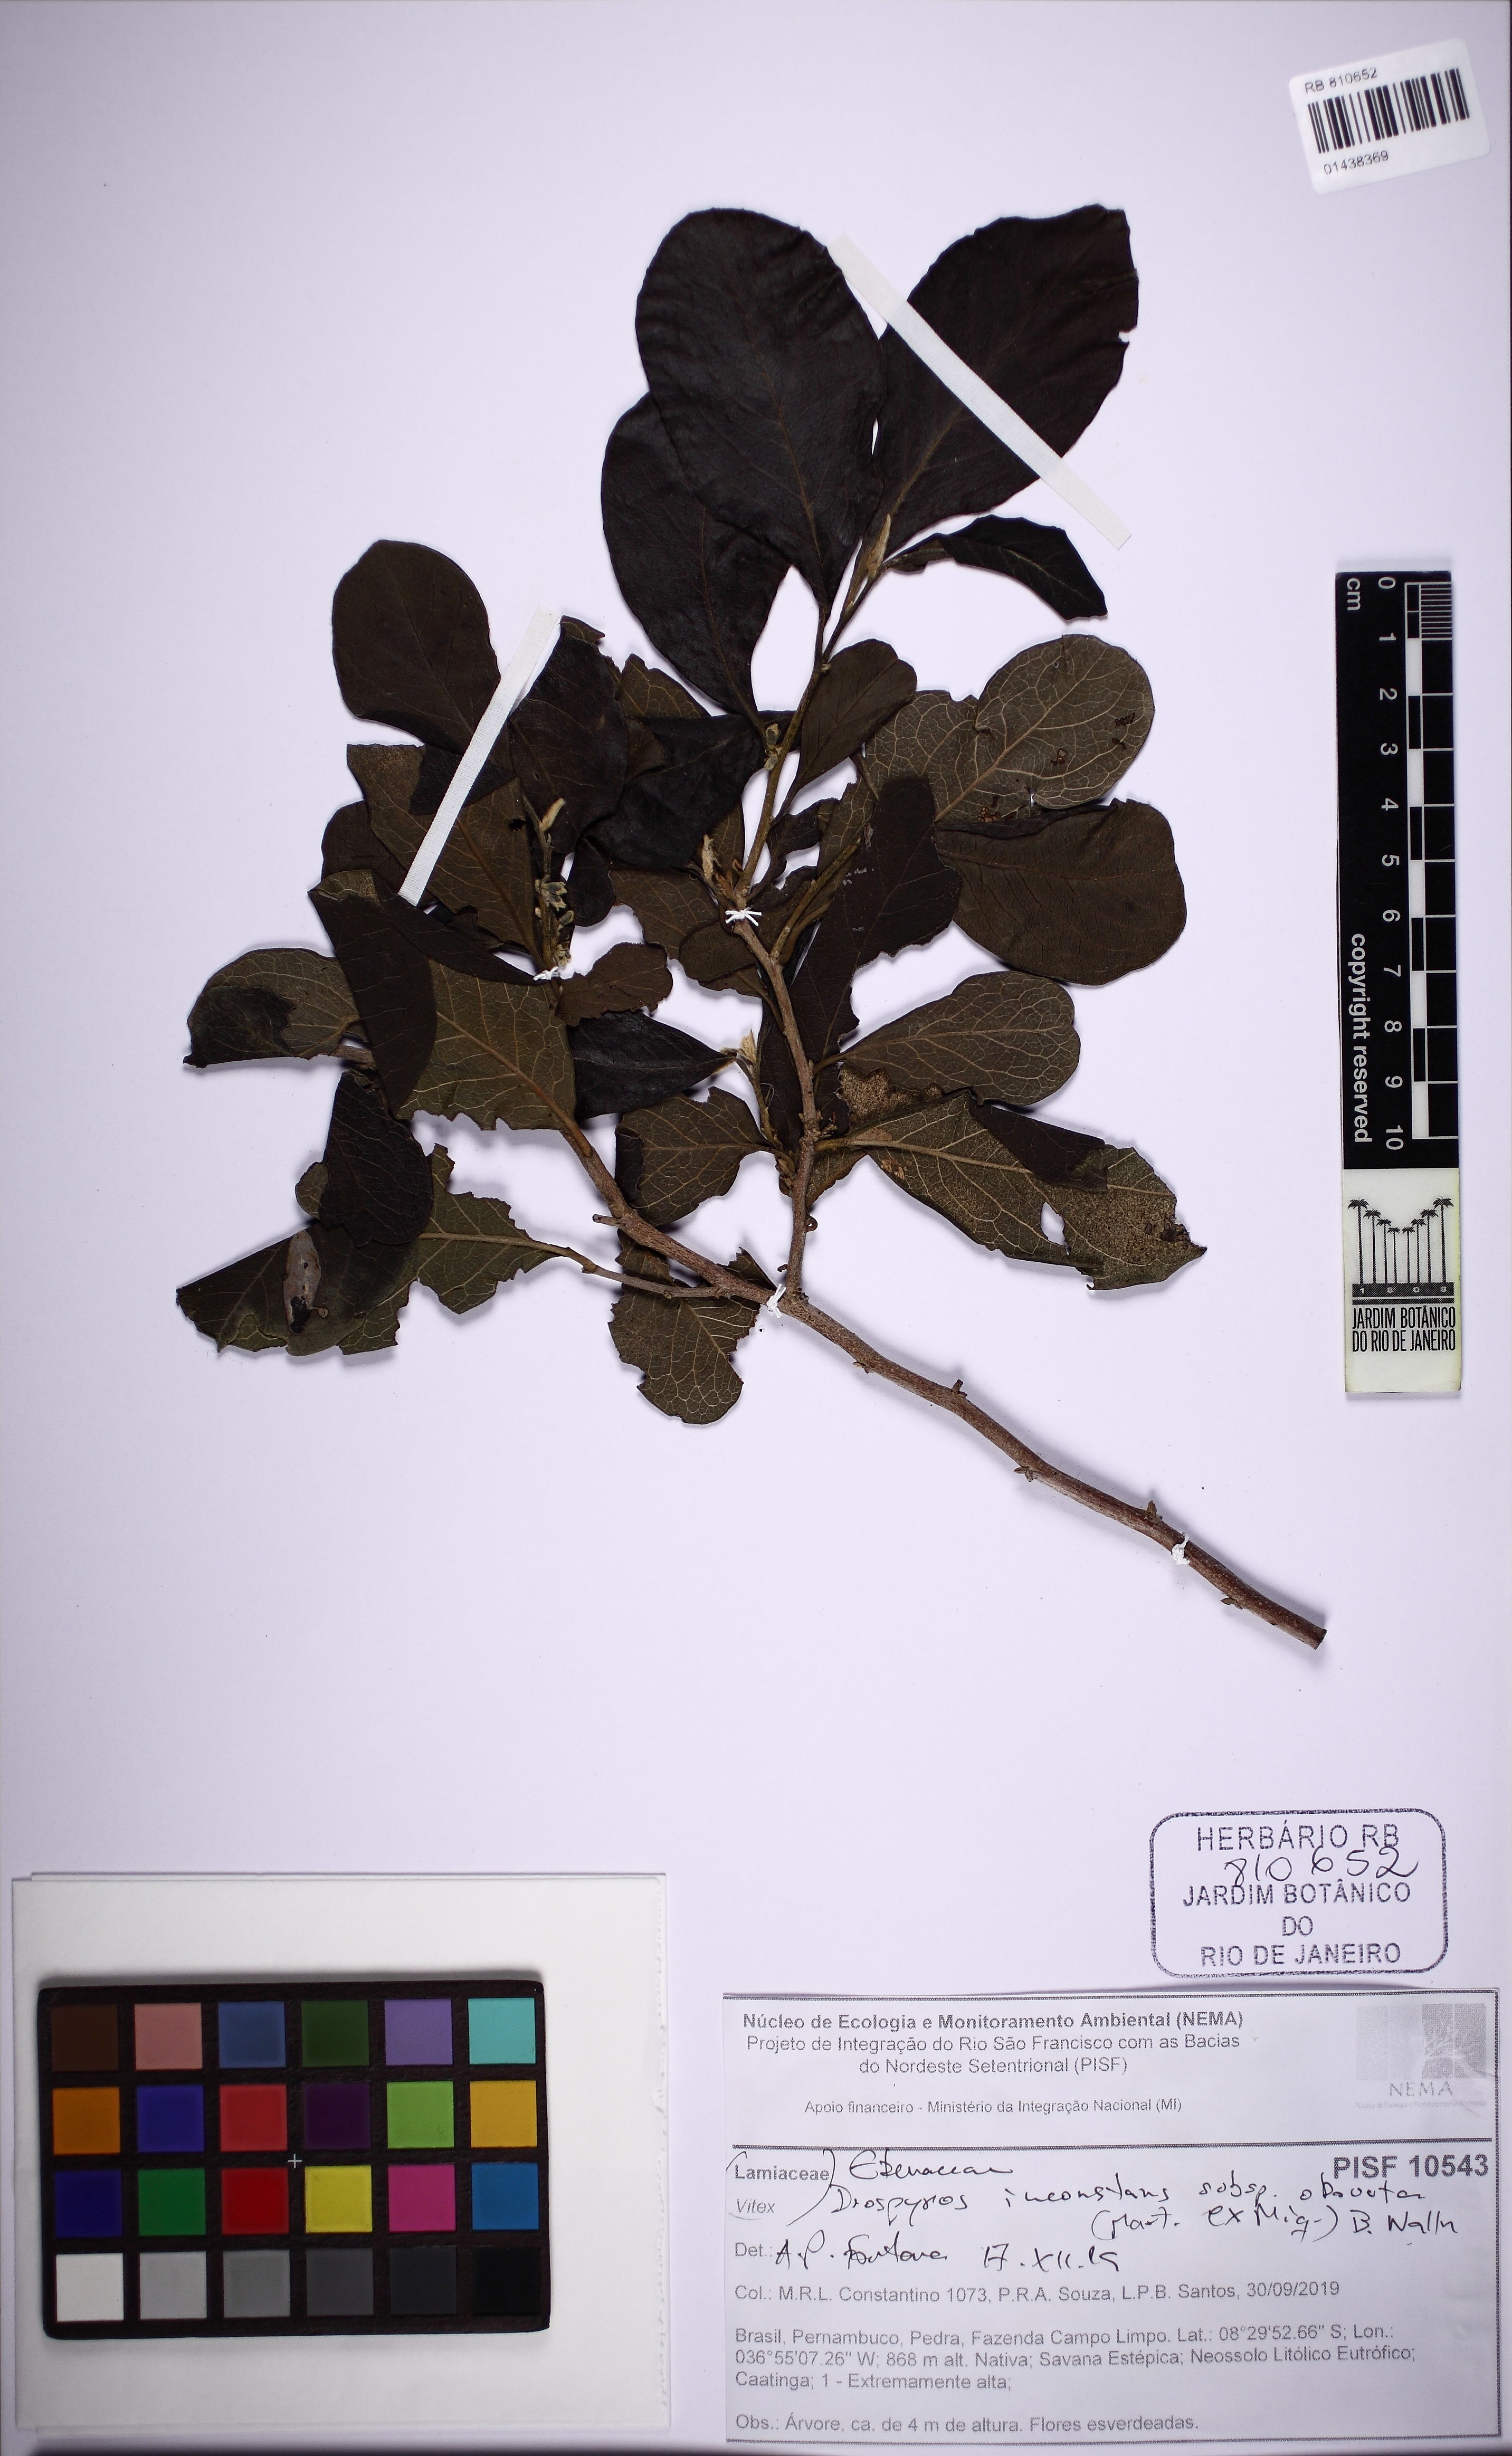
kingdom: Plantae
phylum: Tracheophyta
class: Magnoliopsida
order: Ericales
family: Ebenaceae
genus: Diospyros
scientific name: Diospyros inconstans
